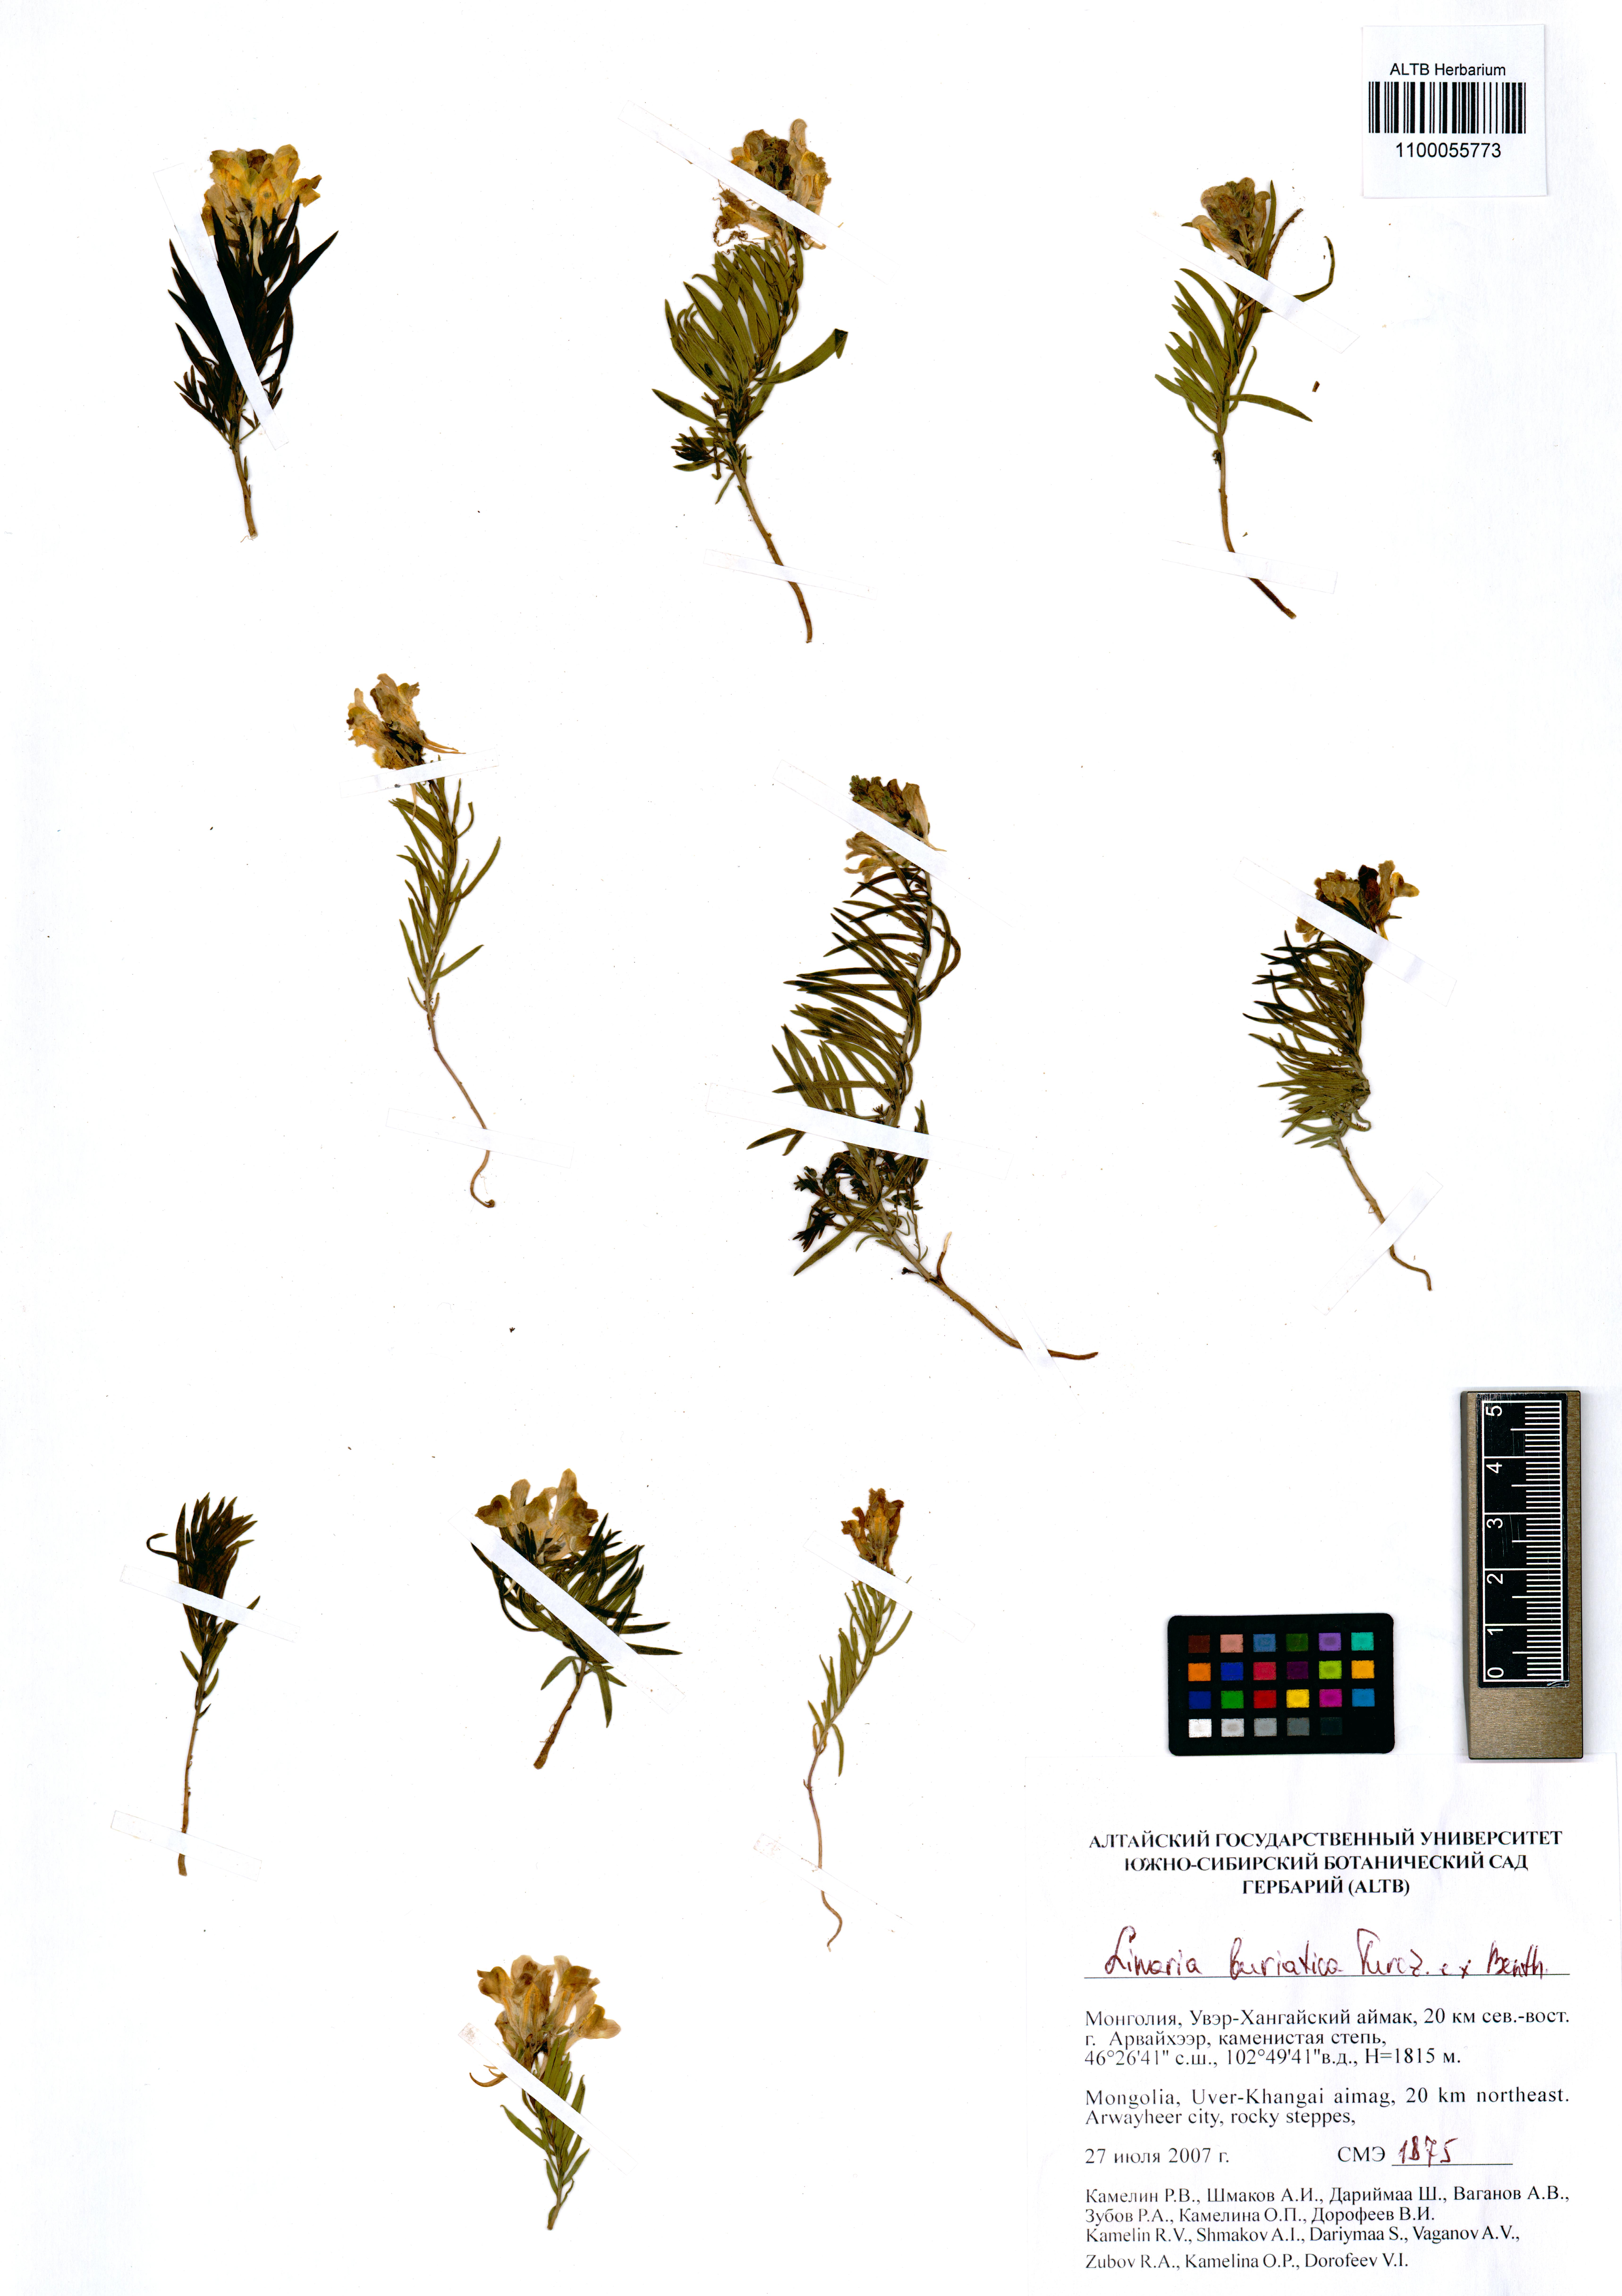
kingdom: Plantae
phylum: Tracheophyta
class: Magnoliopsida
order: Lamiales
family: Plantaginaceae
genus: Linaria
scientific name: Linaria buriatica
